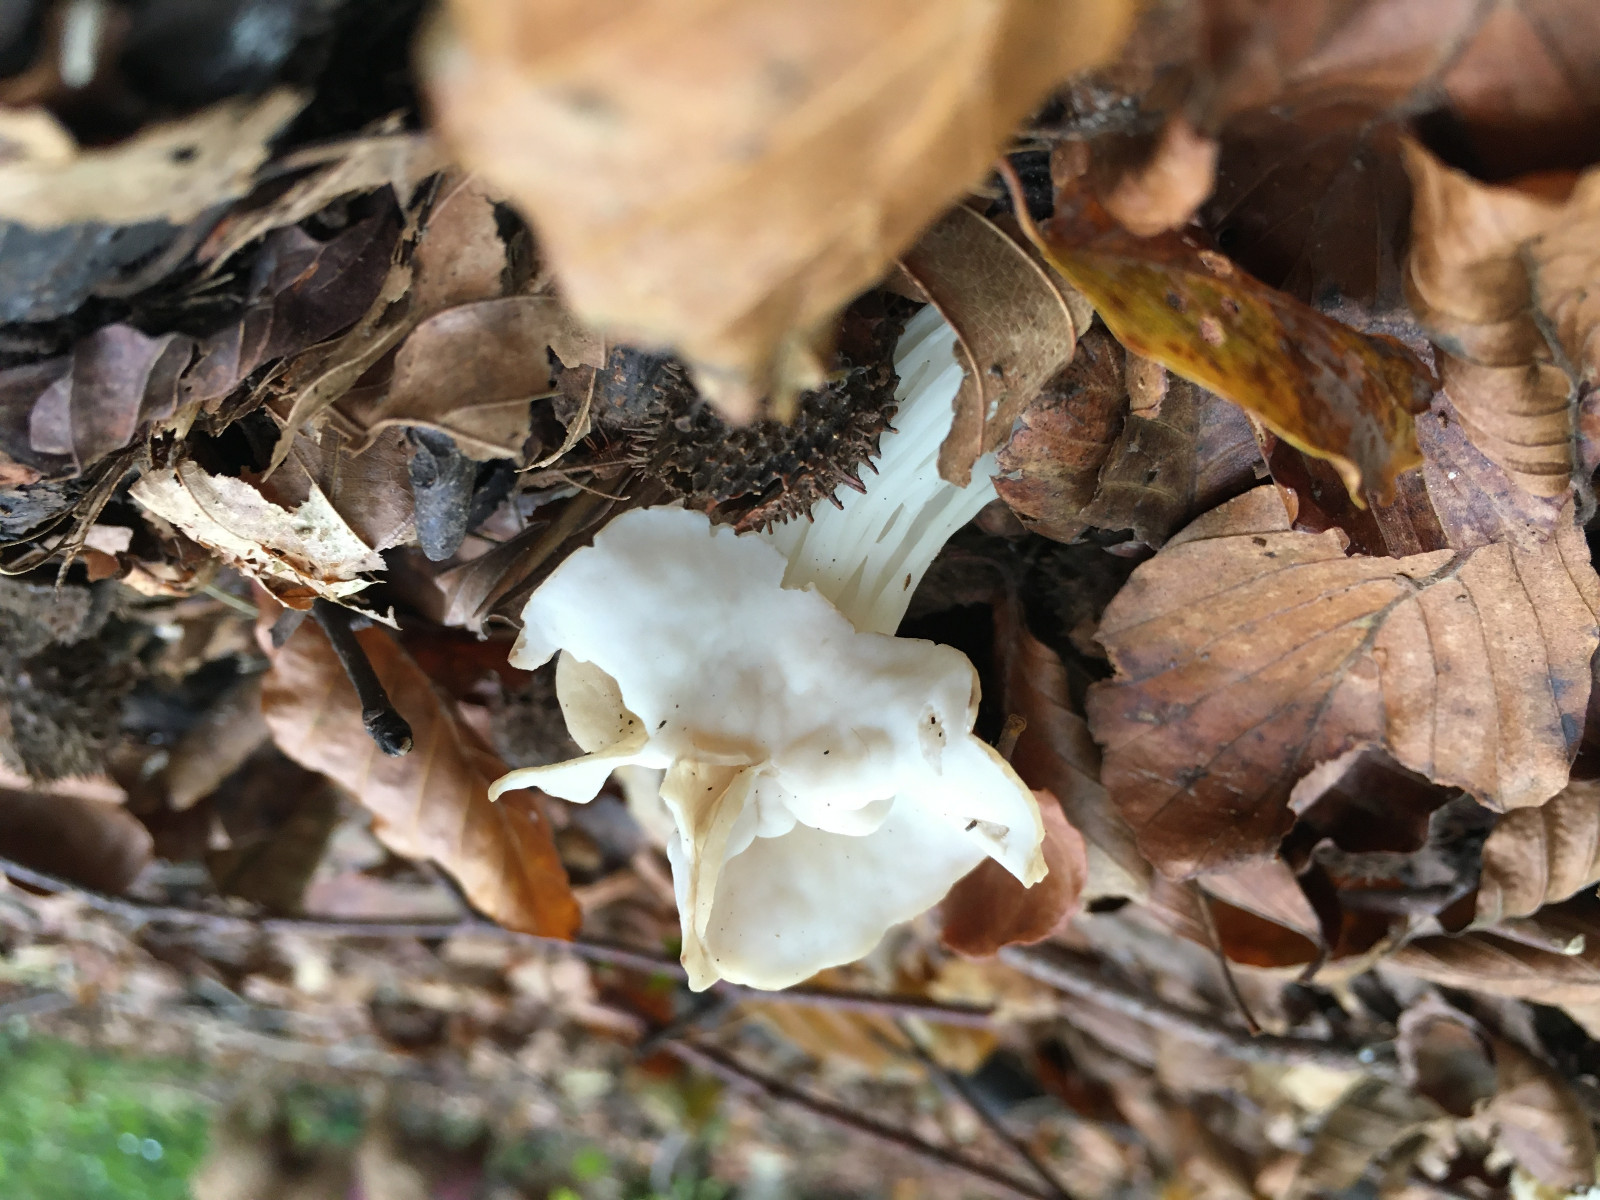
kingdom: Fungi
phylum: Ascomycota
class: Pezizomycetes
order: Pezizales
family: Helvellaceae
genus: Helvella
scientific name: Helvella crispa
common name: kruset foldhat
